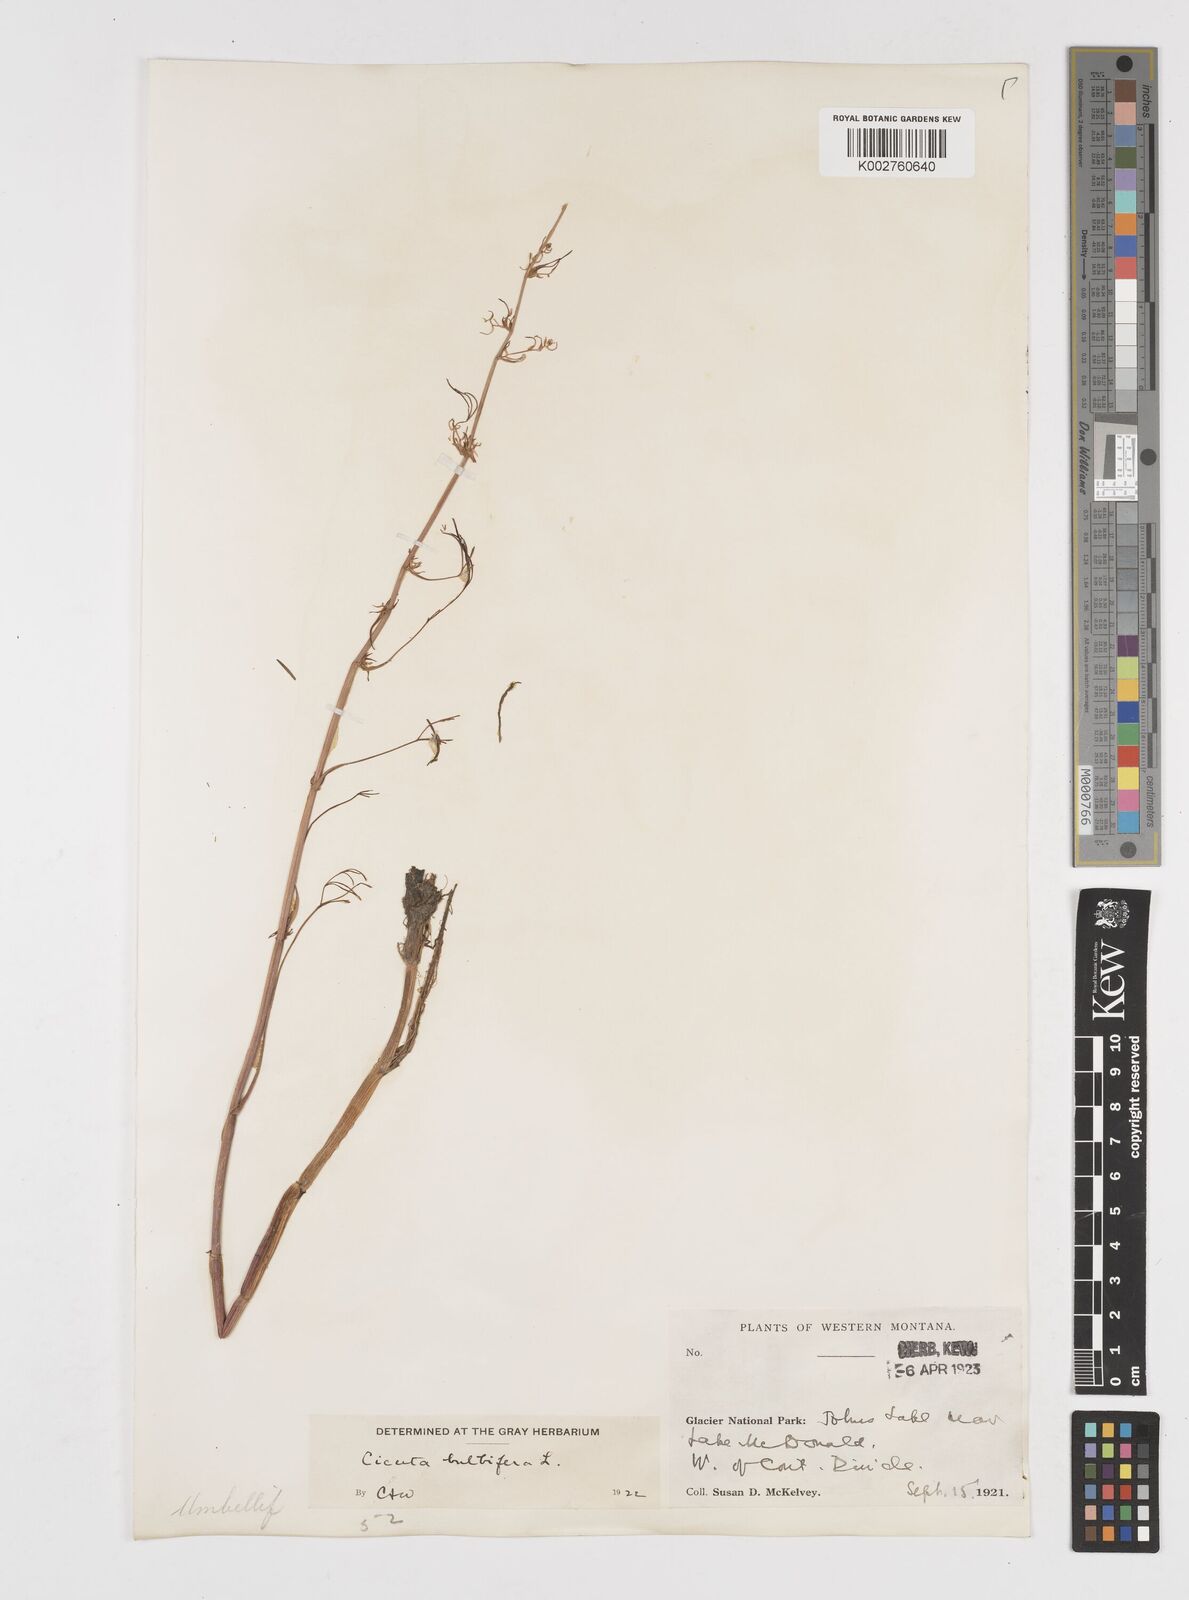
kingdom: Plantae
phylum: Tracheophyta
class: Magnoliopsida
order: Apiales
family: Apiaceae
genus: Cicuta
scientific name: Cicuta bulbifera
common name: Bulb-bearing water-hemlock
